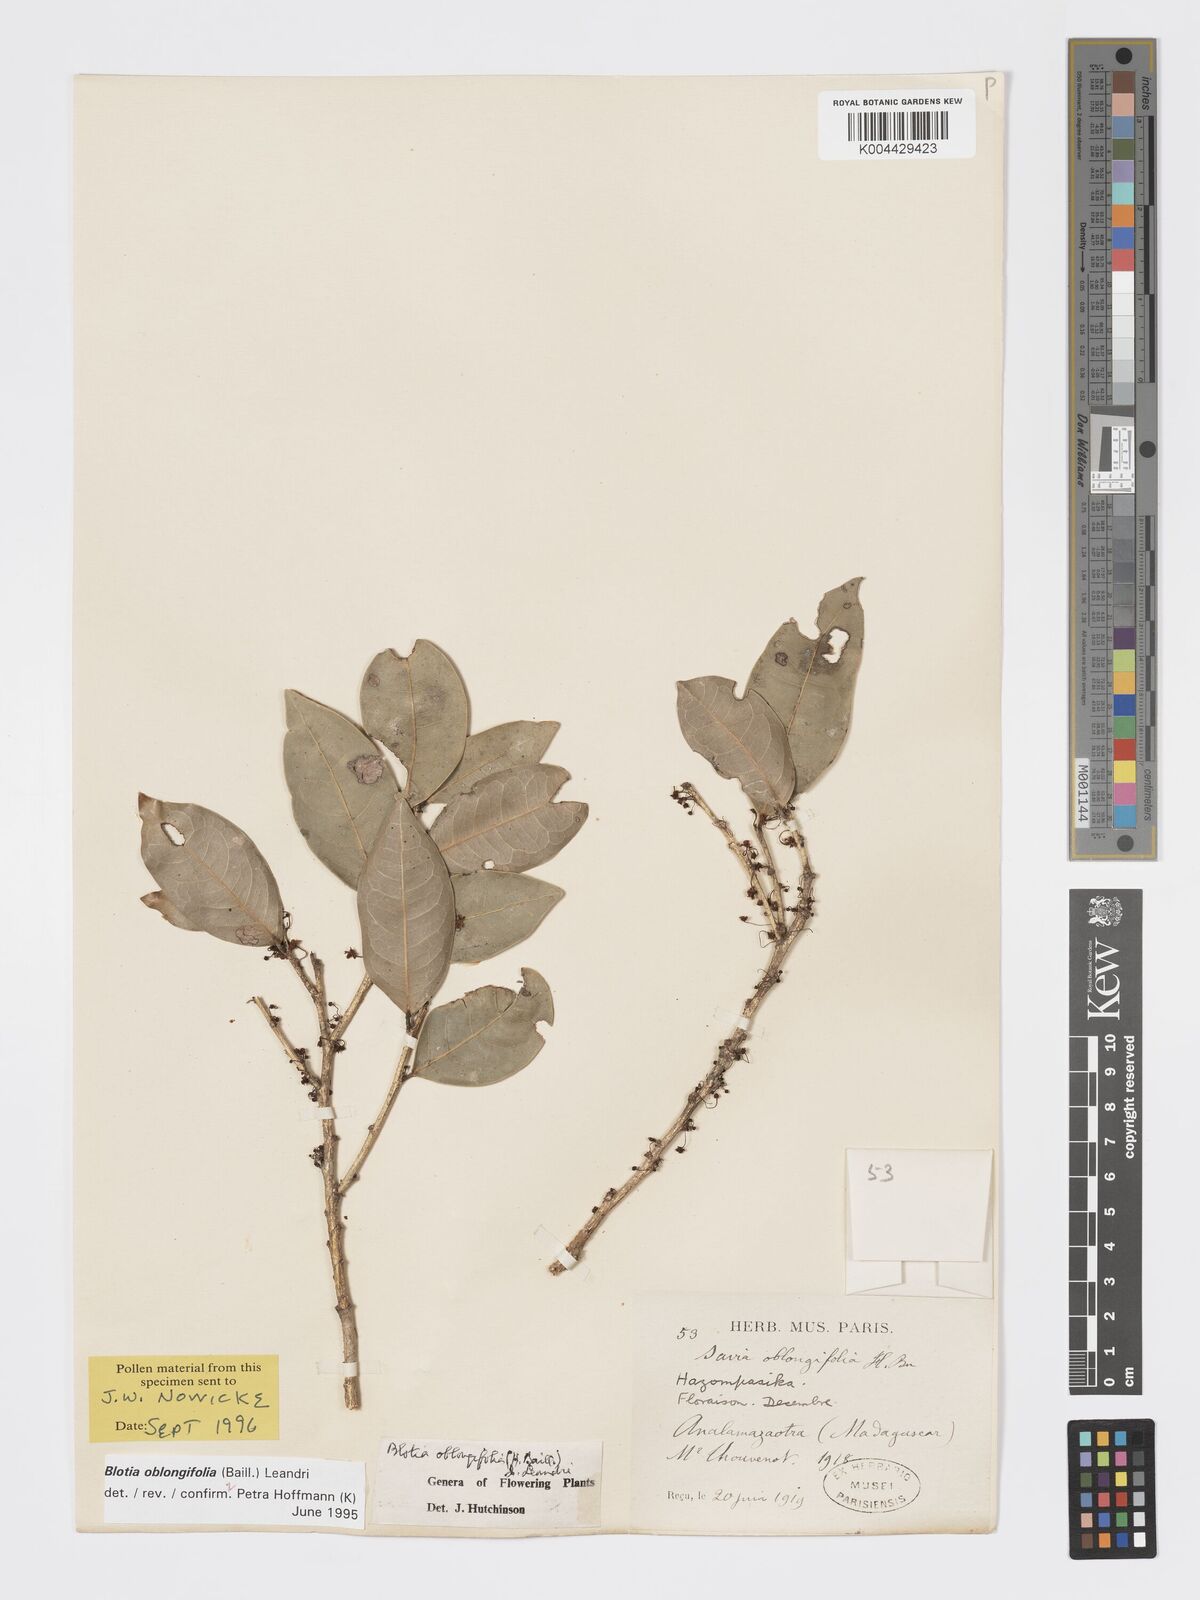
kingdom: Plantae
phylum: Tracheophyta
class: Magnoliopsida
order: Malpighiales
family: Phyllanthaceae
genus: Wielandia
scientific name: Wielandia oblongifolia
